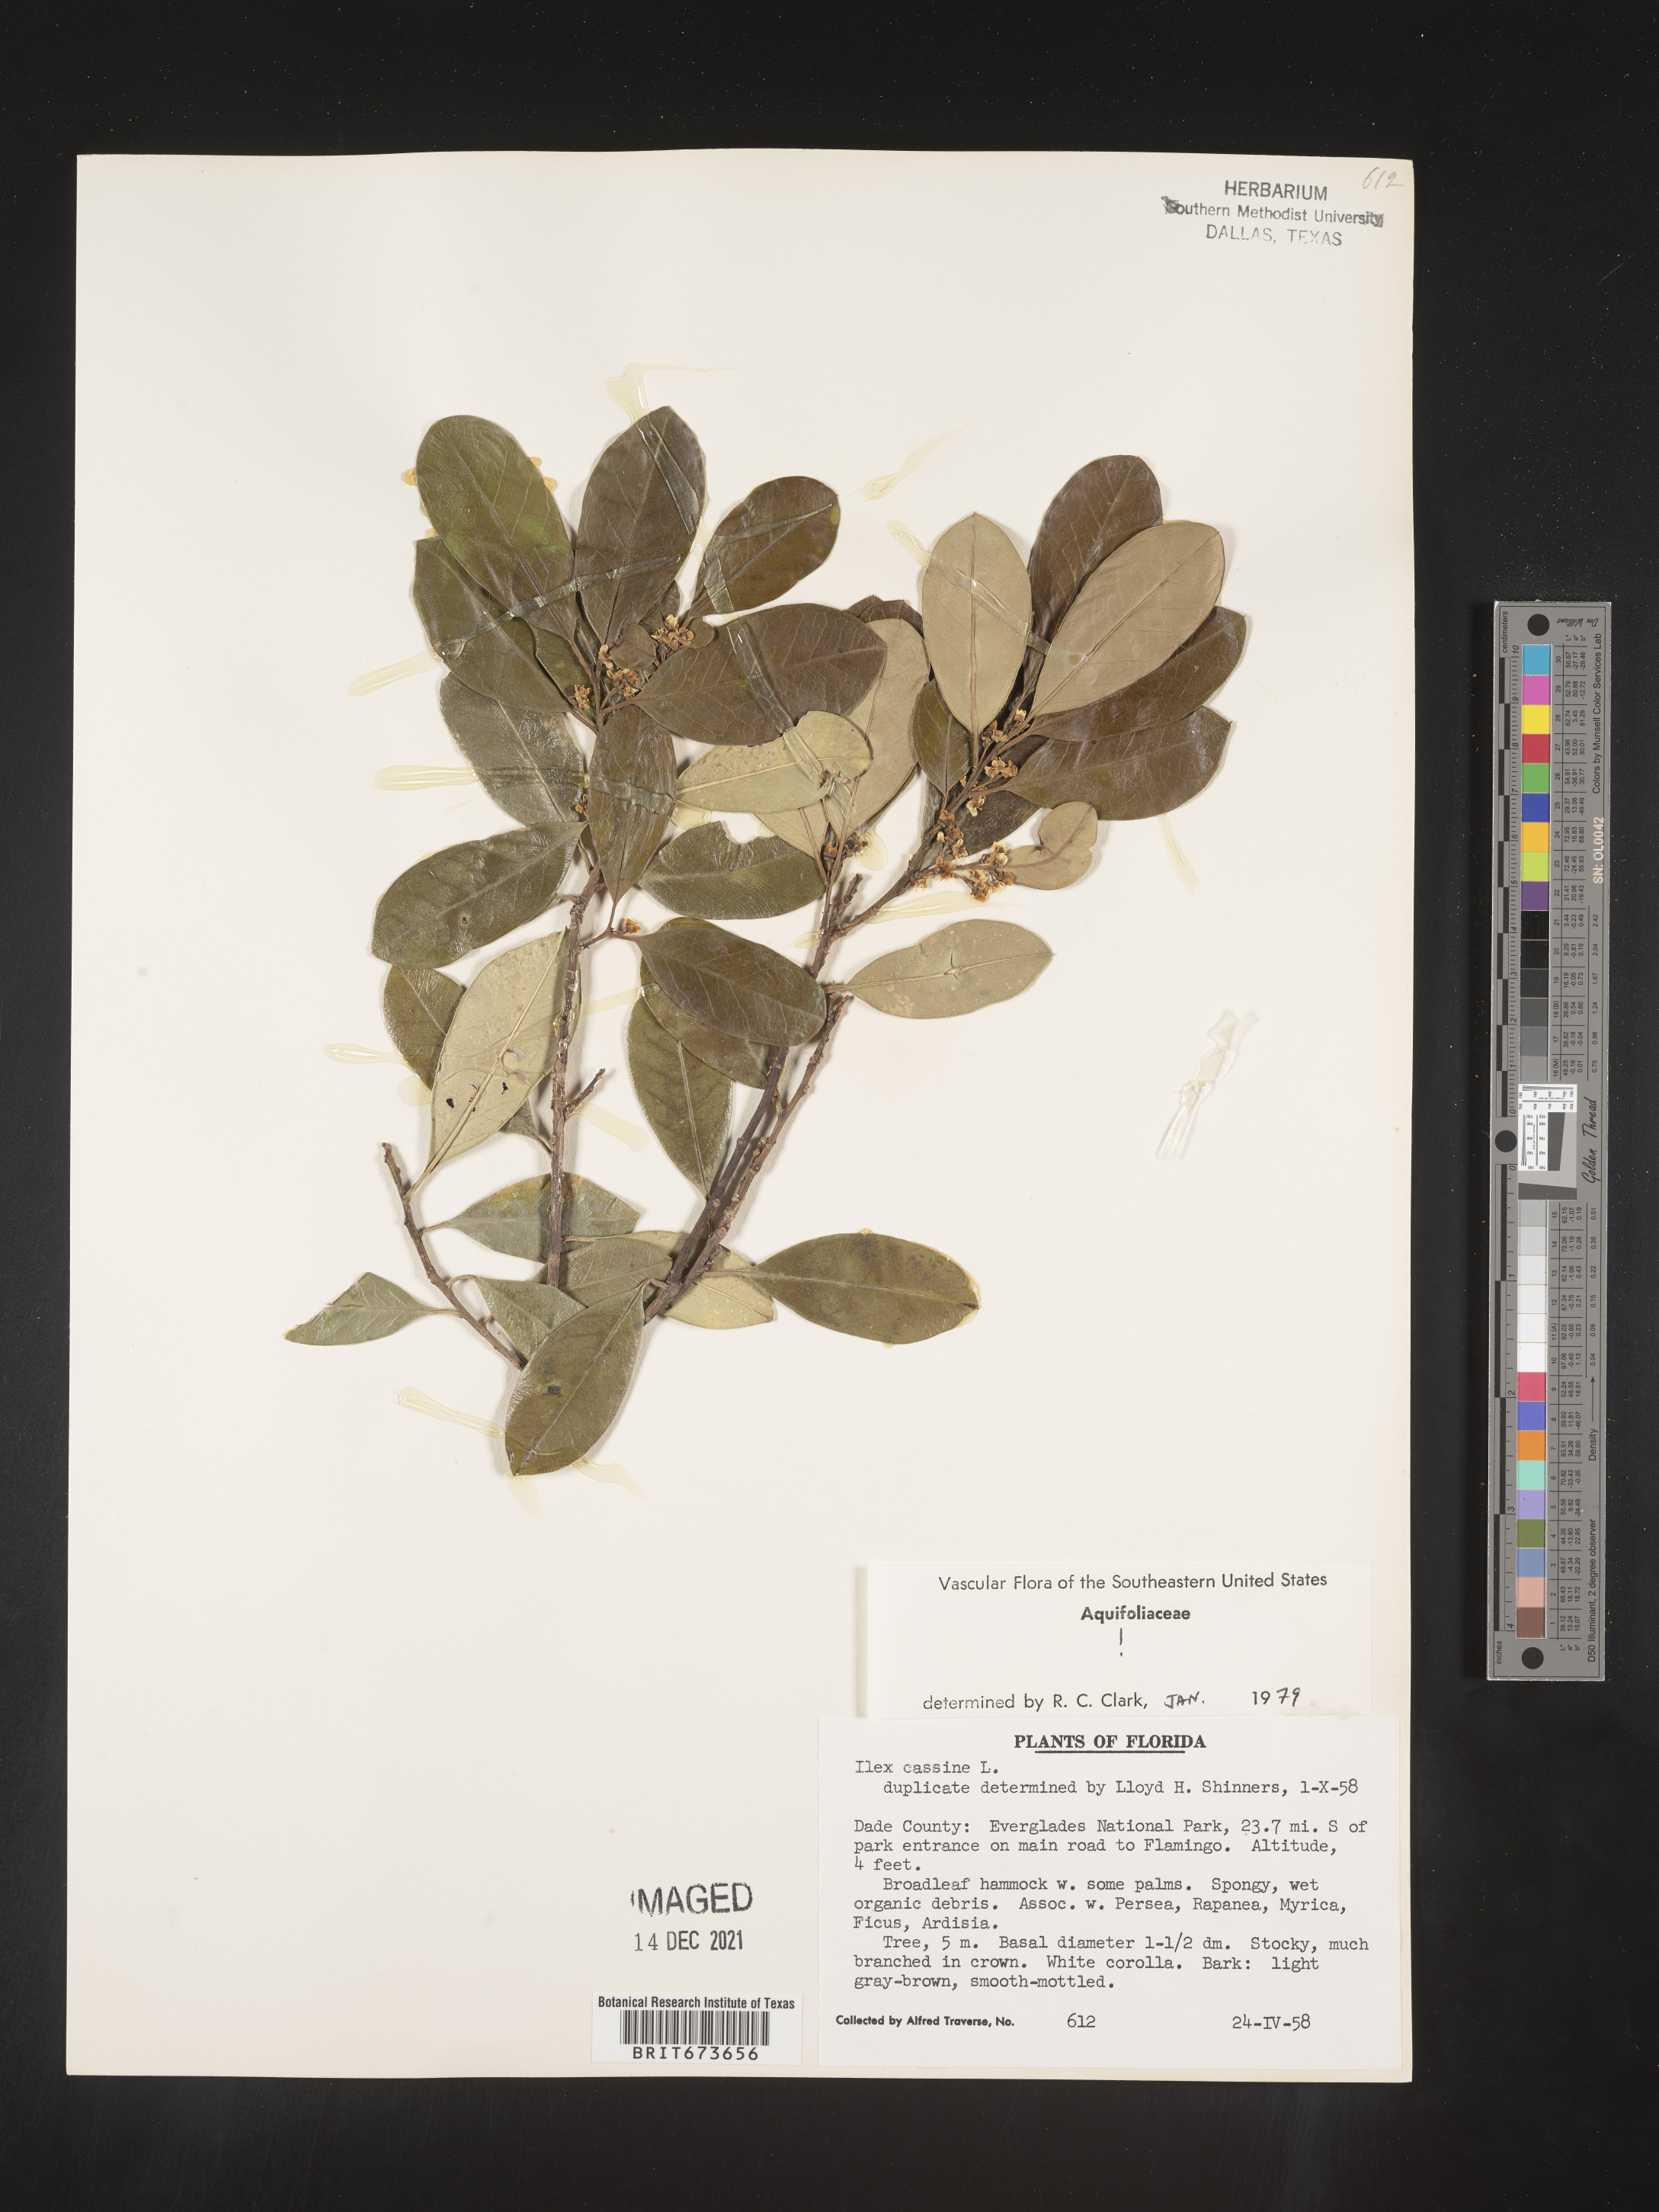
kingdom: Plantae
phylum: Tracheophyta
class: Magnoliopsida
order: Aquifoliales
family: Aquifoliaceae
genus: Ilex
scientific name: Ilex cassine
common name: Dahoon
